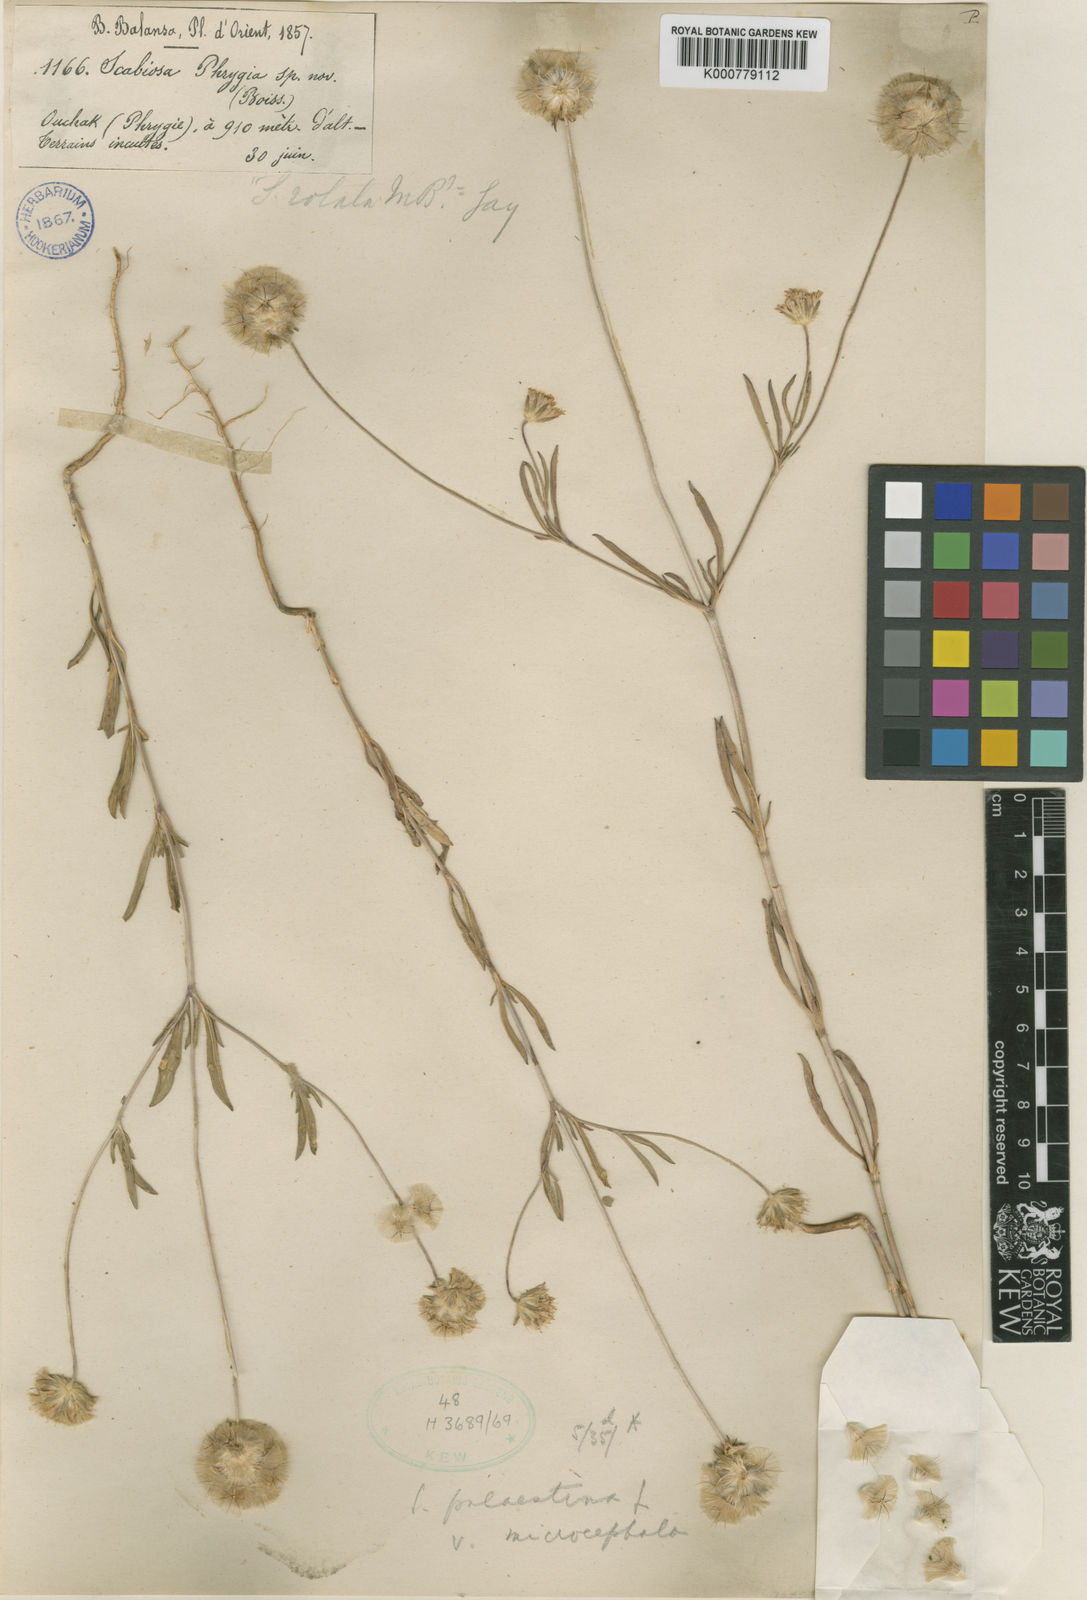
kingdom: Plantae
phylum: Tracheophyta
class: Magnoliopsida
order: Dipsacales
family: Caprifoliaceae
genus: Lomelosia
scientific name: Lomelosia palaestina
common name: Balkan pincushions
